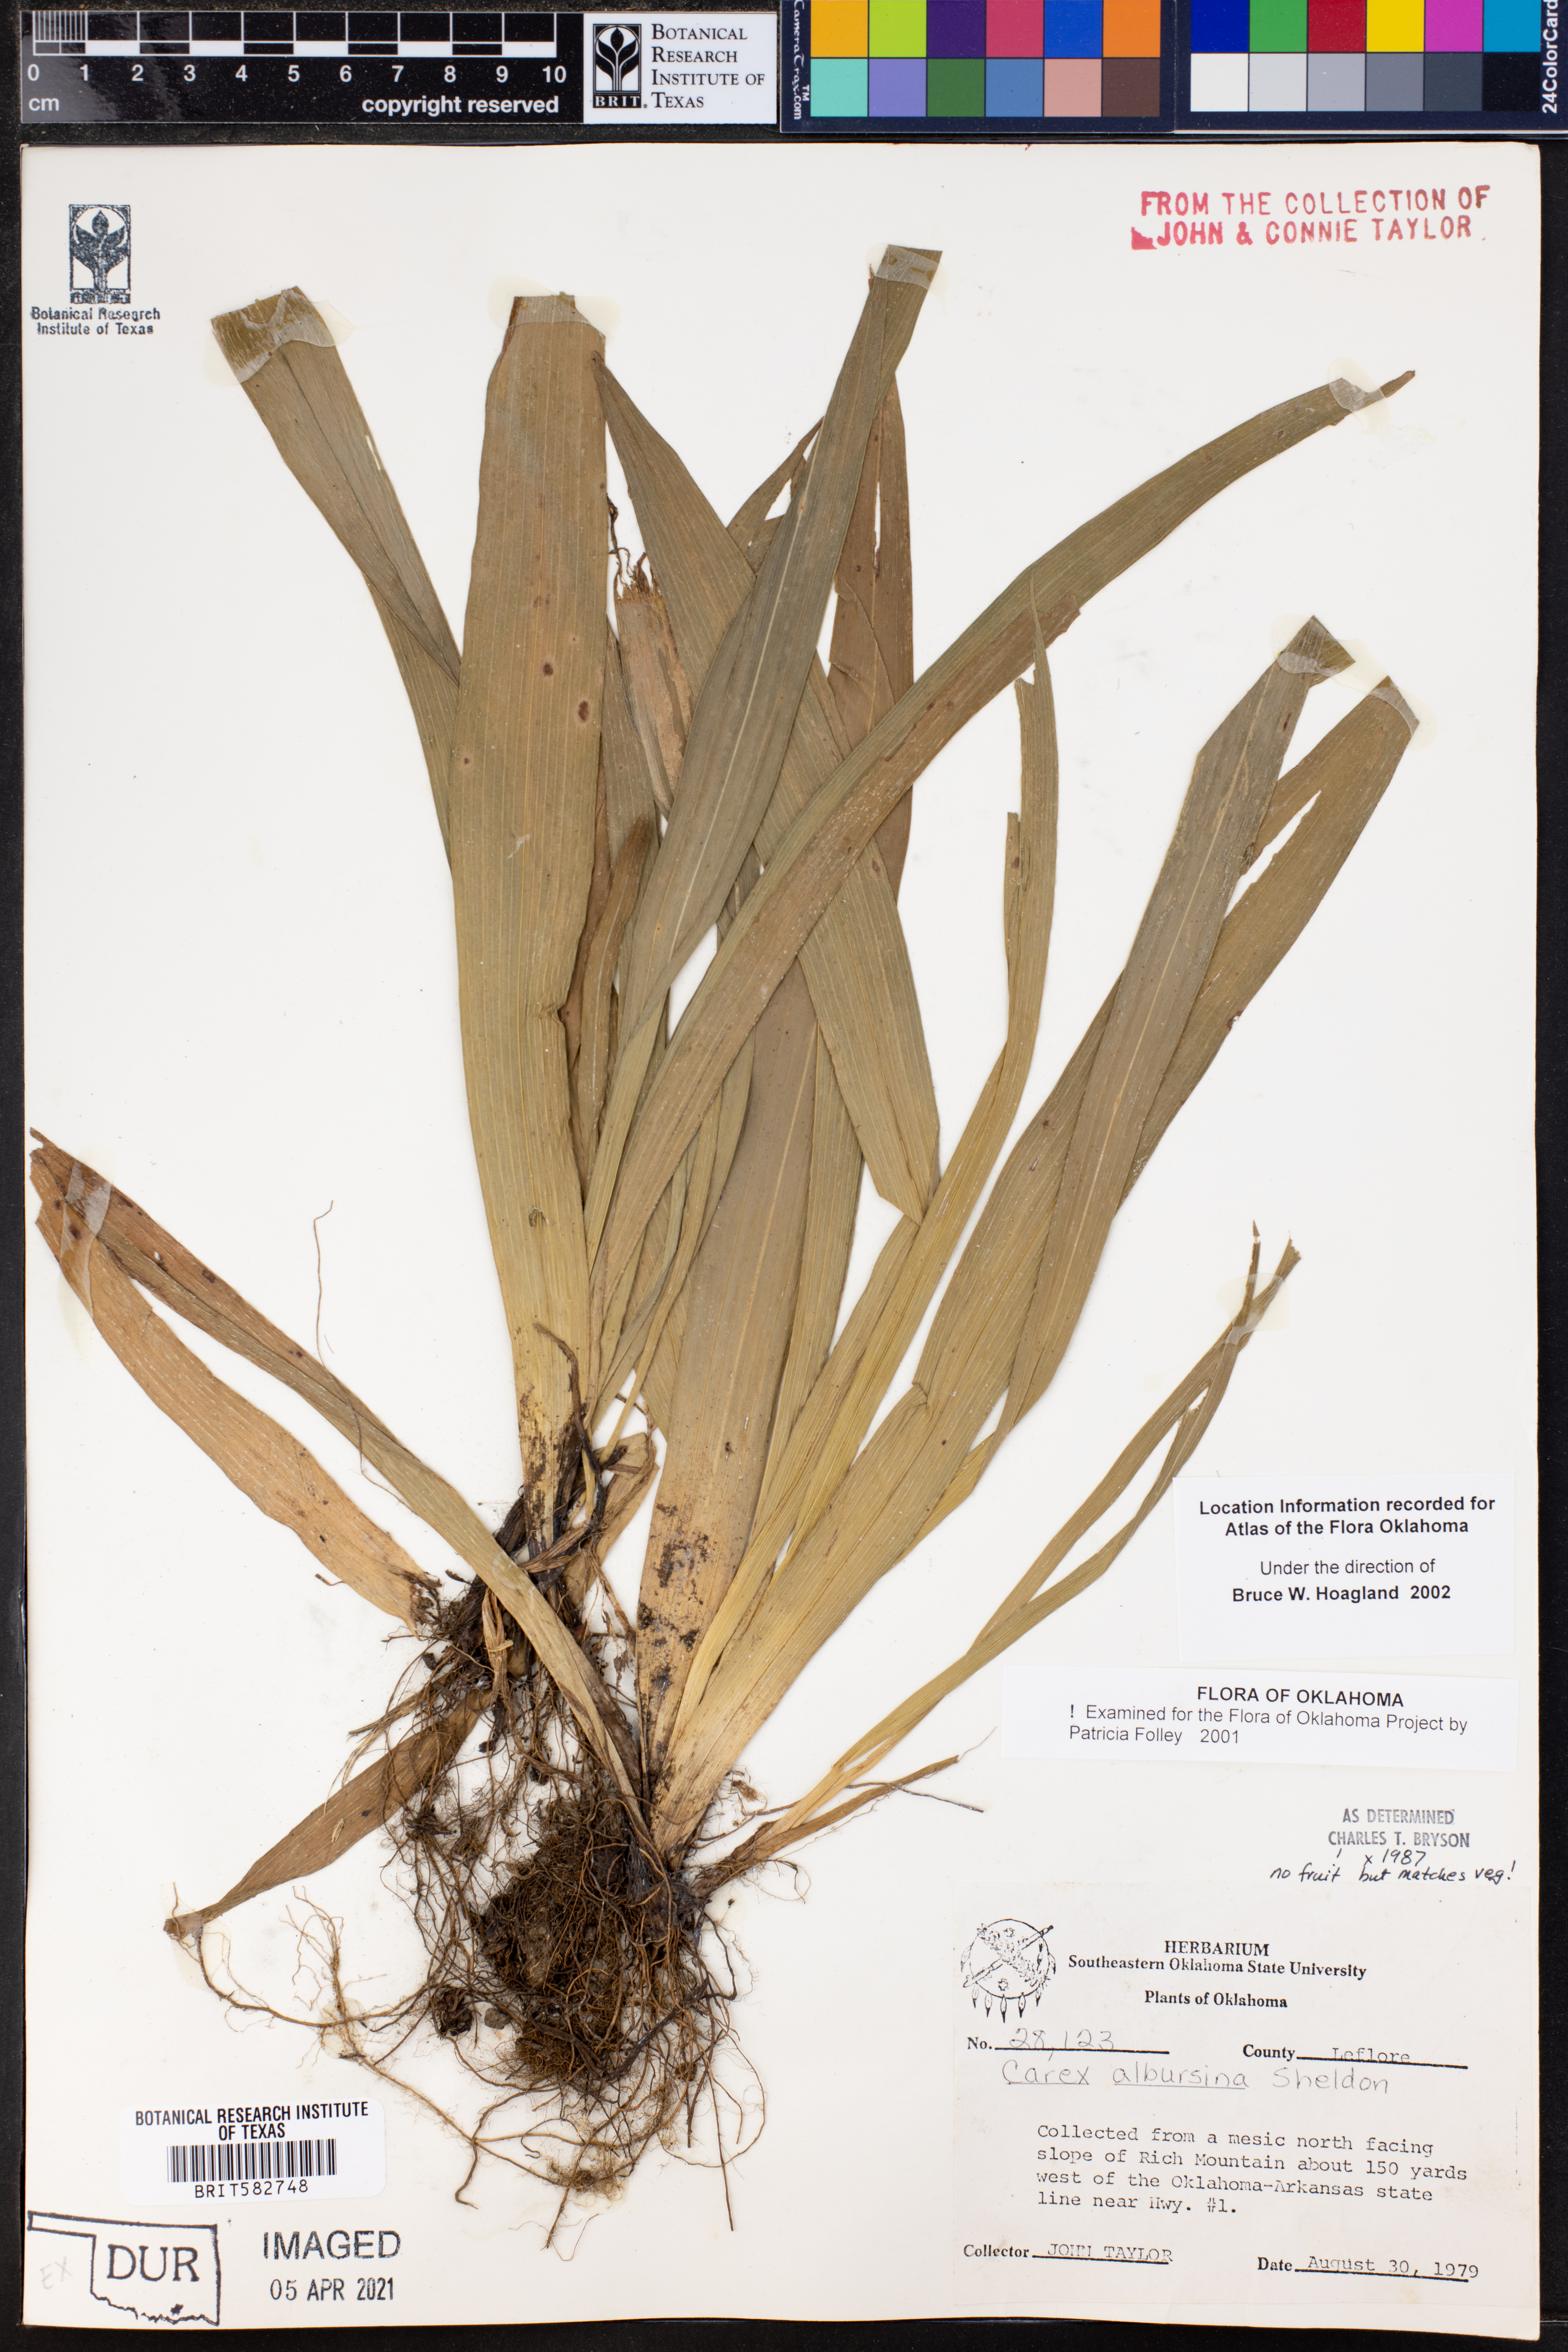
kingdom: Plantae
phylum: Tracheophyta
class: Liliopsida
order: Poales
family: Cyperaceae
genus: Carex
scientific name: Carex albursina
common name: Blunt-scale wood sedge
